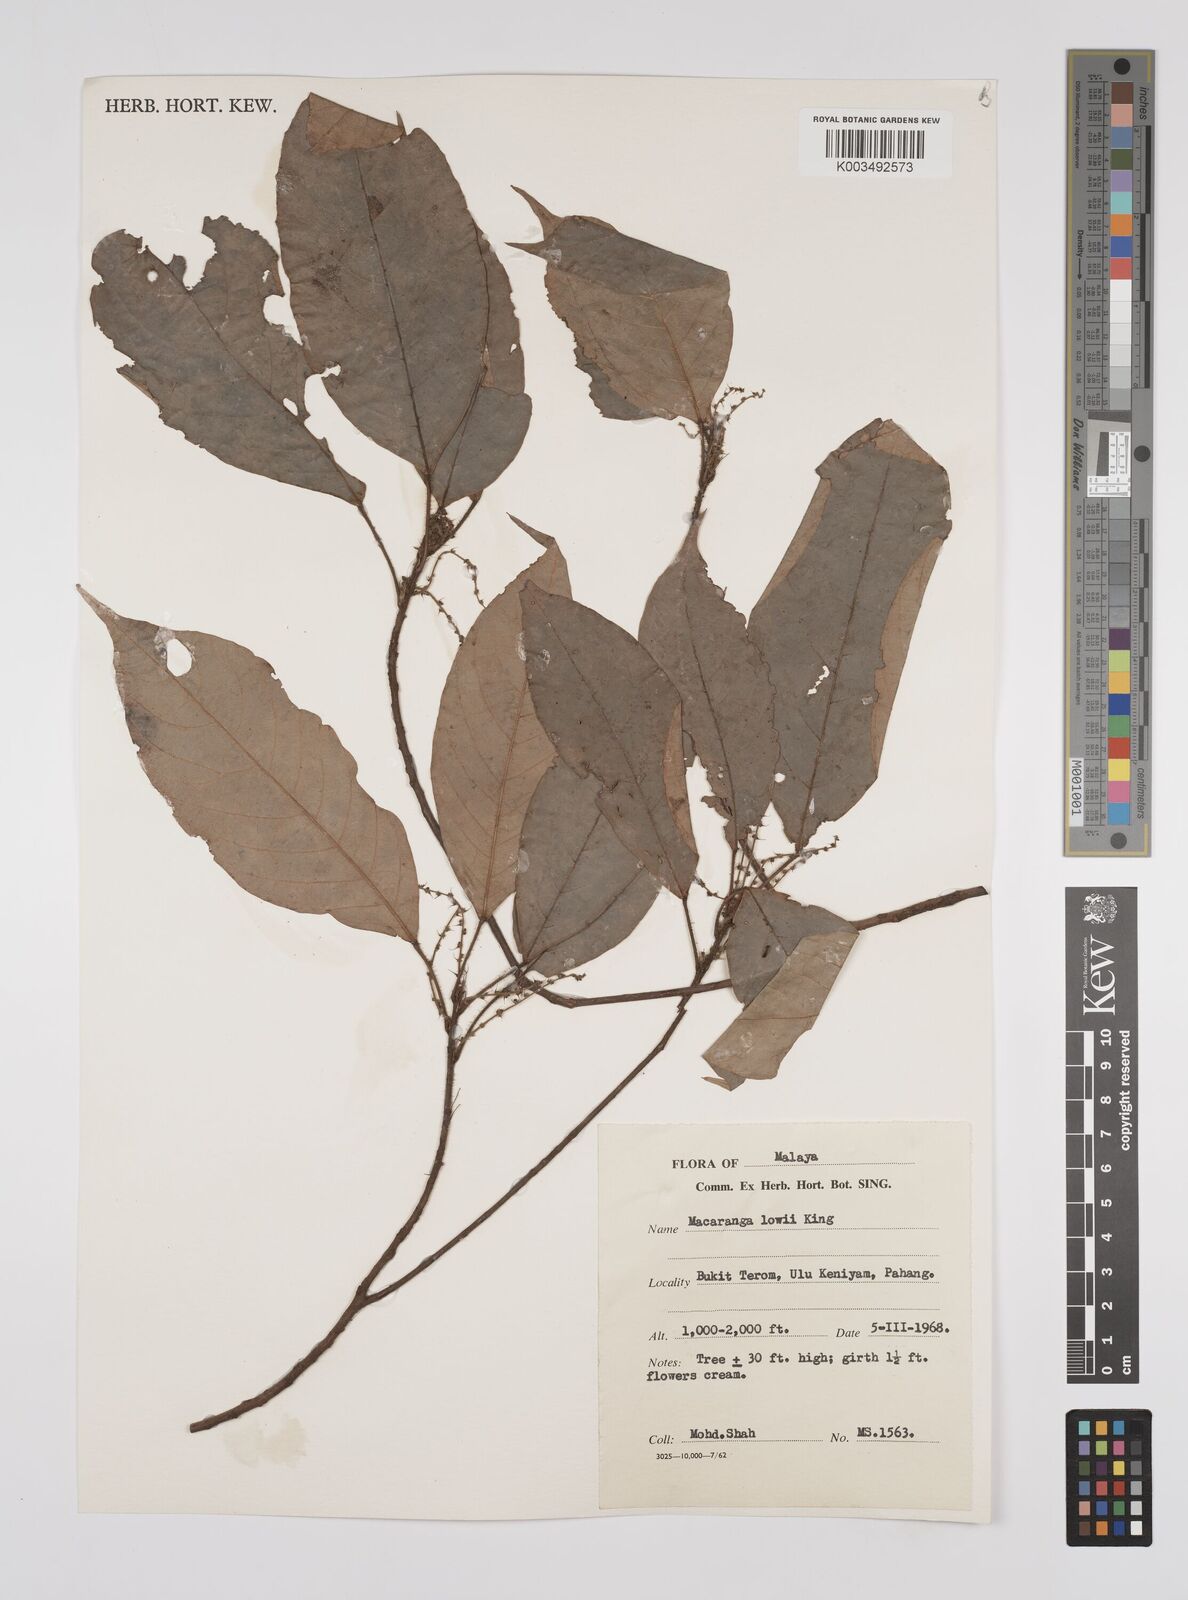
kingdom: Plantae
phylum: Tracheophyta
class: Magnoliopsida
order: Malpighiales
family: Euphorbiaceae
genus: Macaranga
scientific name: Macaranga lowii
